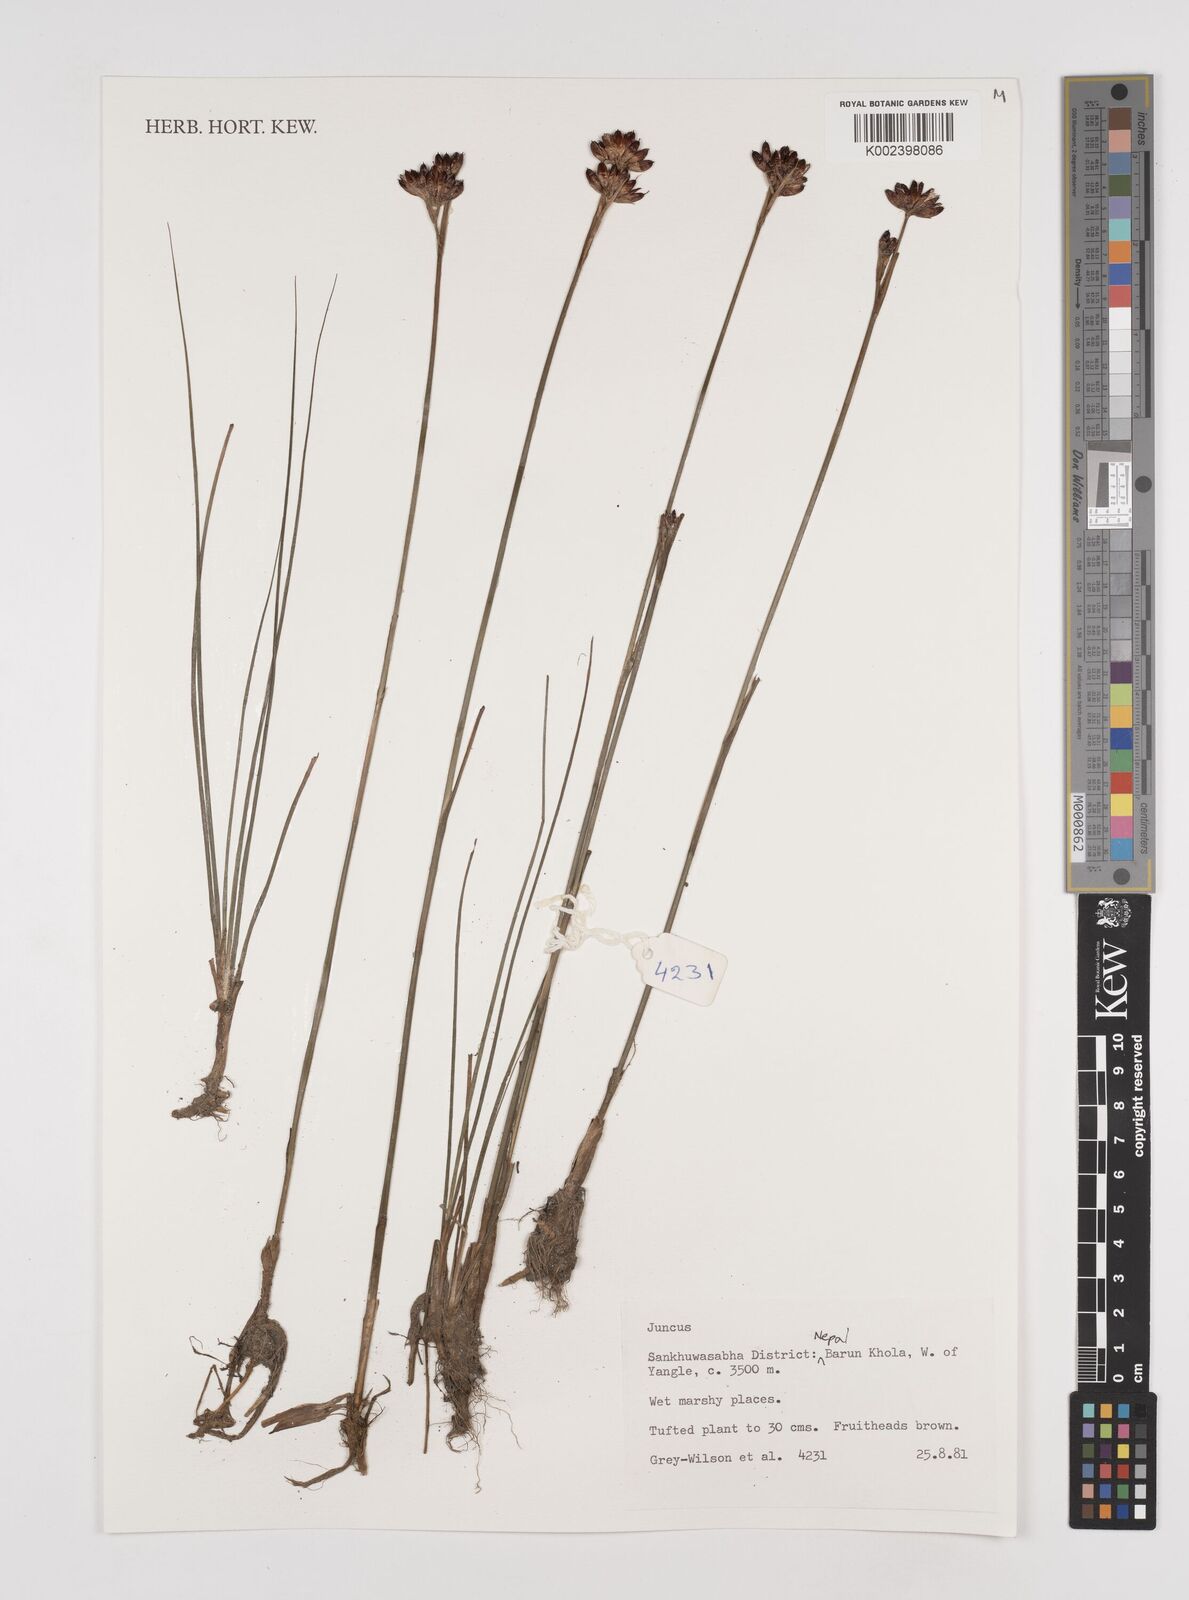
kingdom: Plantae
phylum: Tracheophyta
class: Liliopsida
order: Poales
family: Juncaceae
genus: Juncus
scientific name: Juncus
